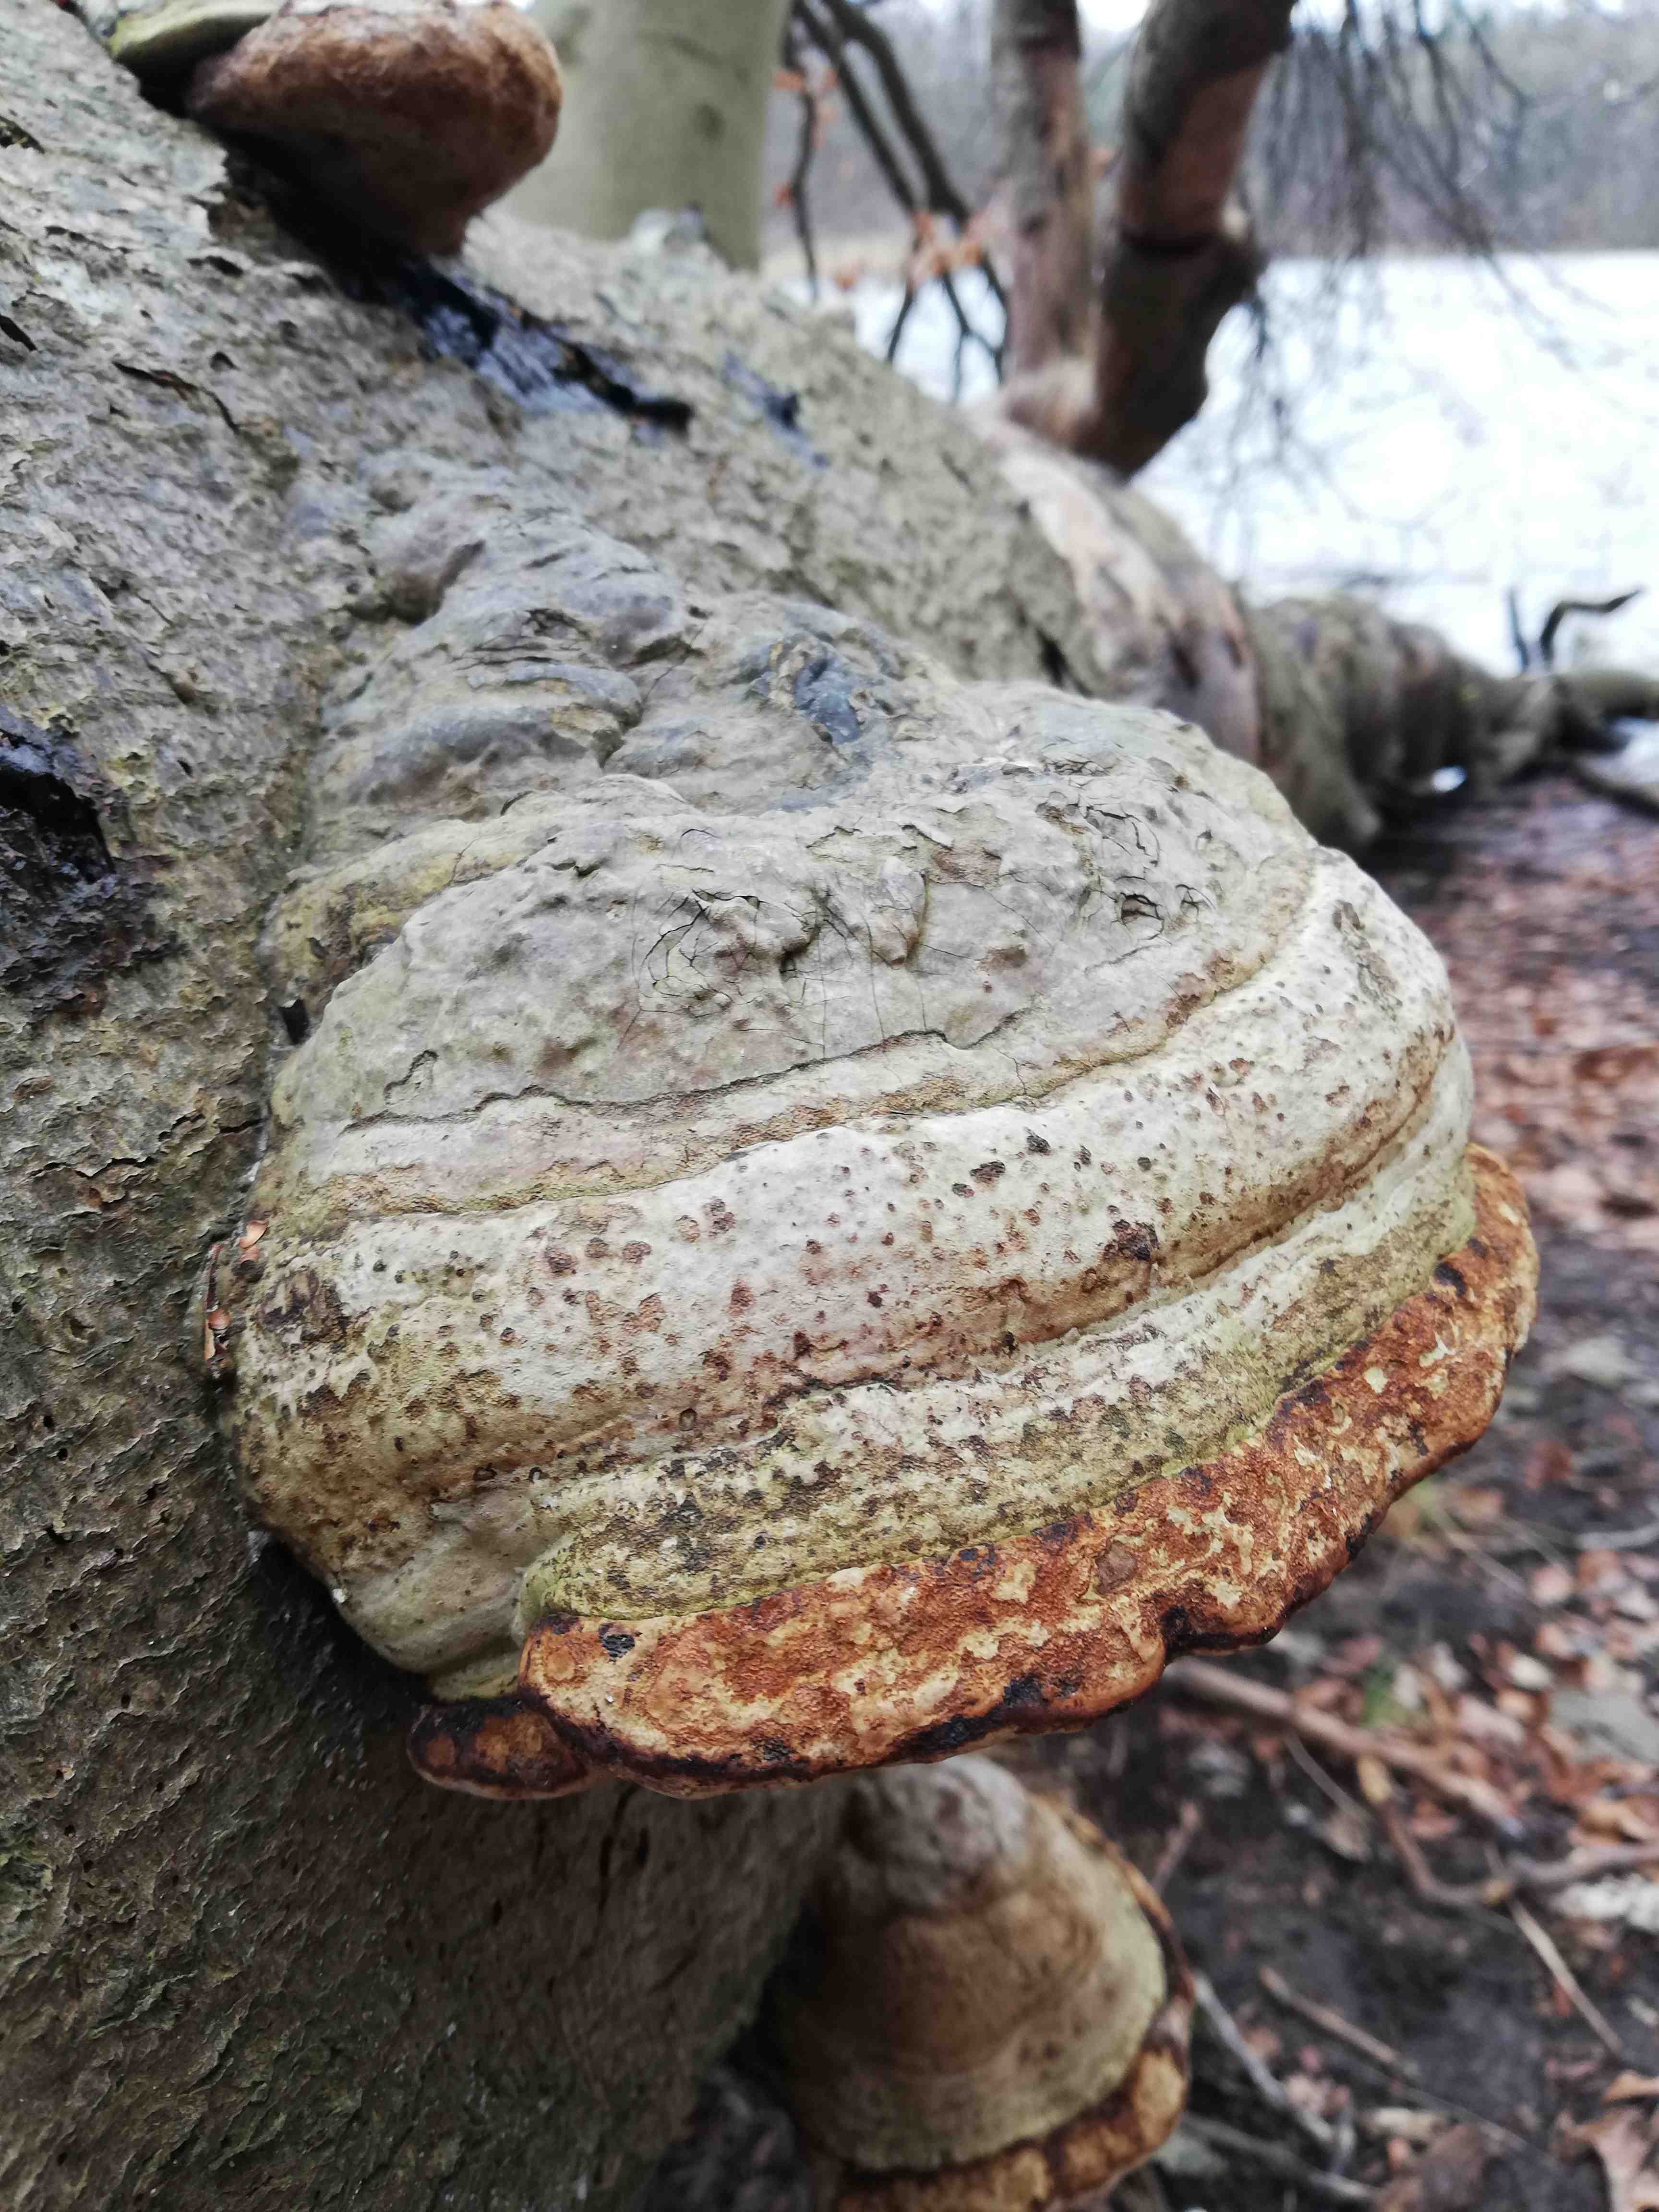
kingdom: Fungi
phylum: Basidiomycota
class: Agaricomycetes
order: Polyporales
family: Polyporaceae
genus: Fomes
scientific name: Fomes fomentarius
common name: tøndersvamp
